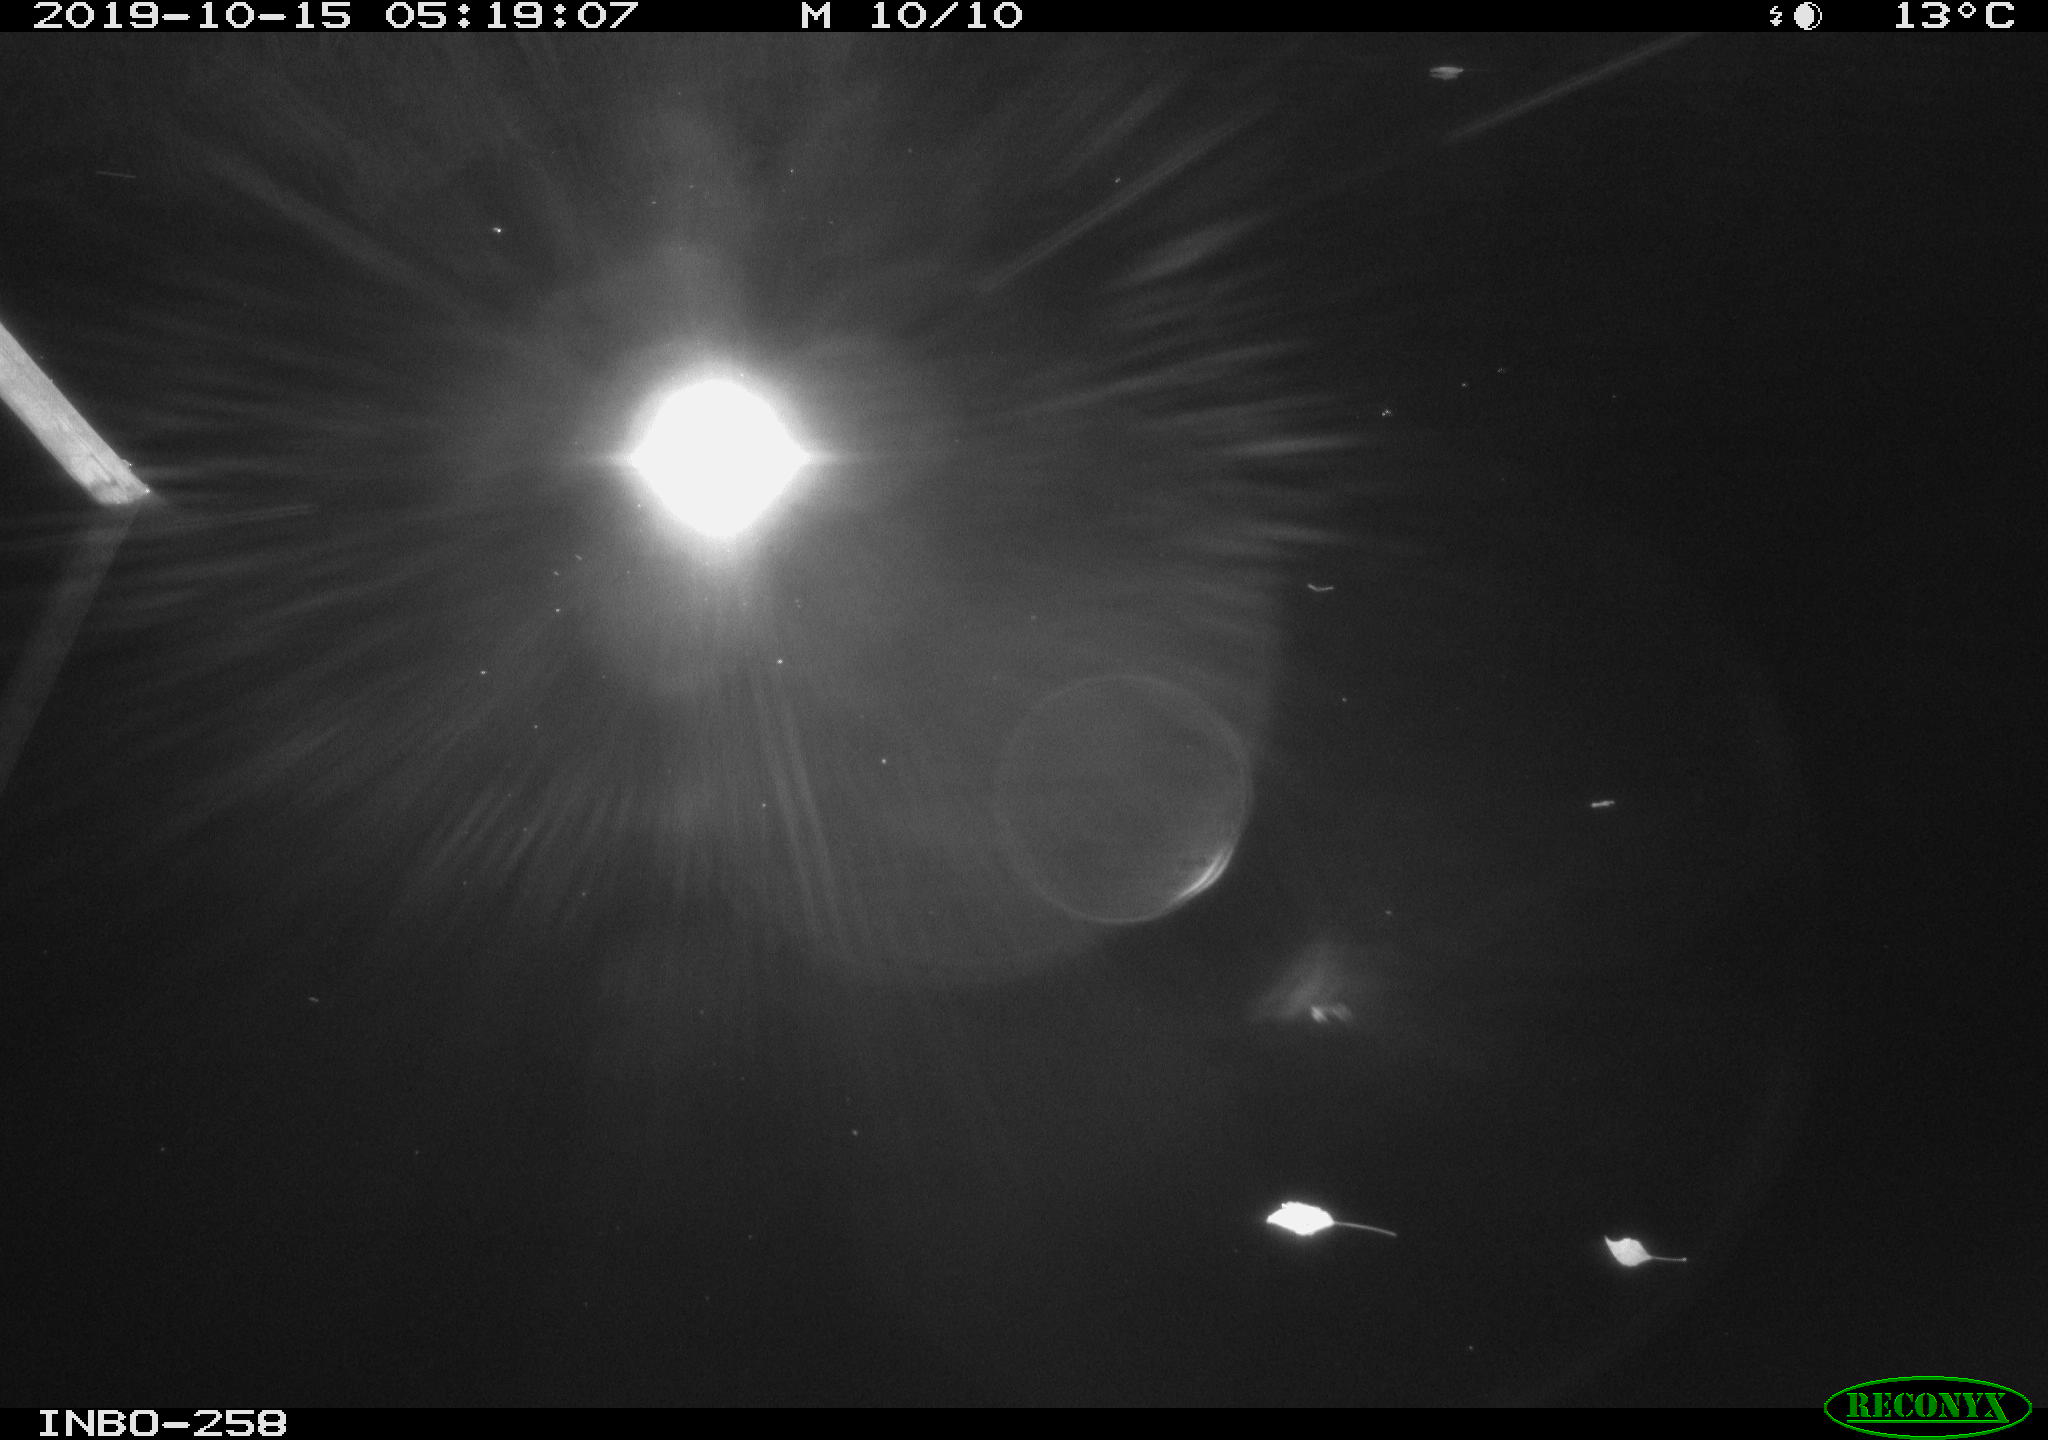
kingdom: Animalia
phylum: Chordata
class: Aves
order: Anseriformes
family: Anatidae
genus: Anas
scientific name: Anas platyrhynchos
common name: Mallard
